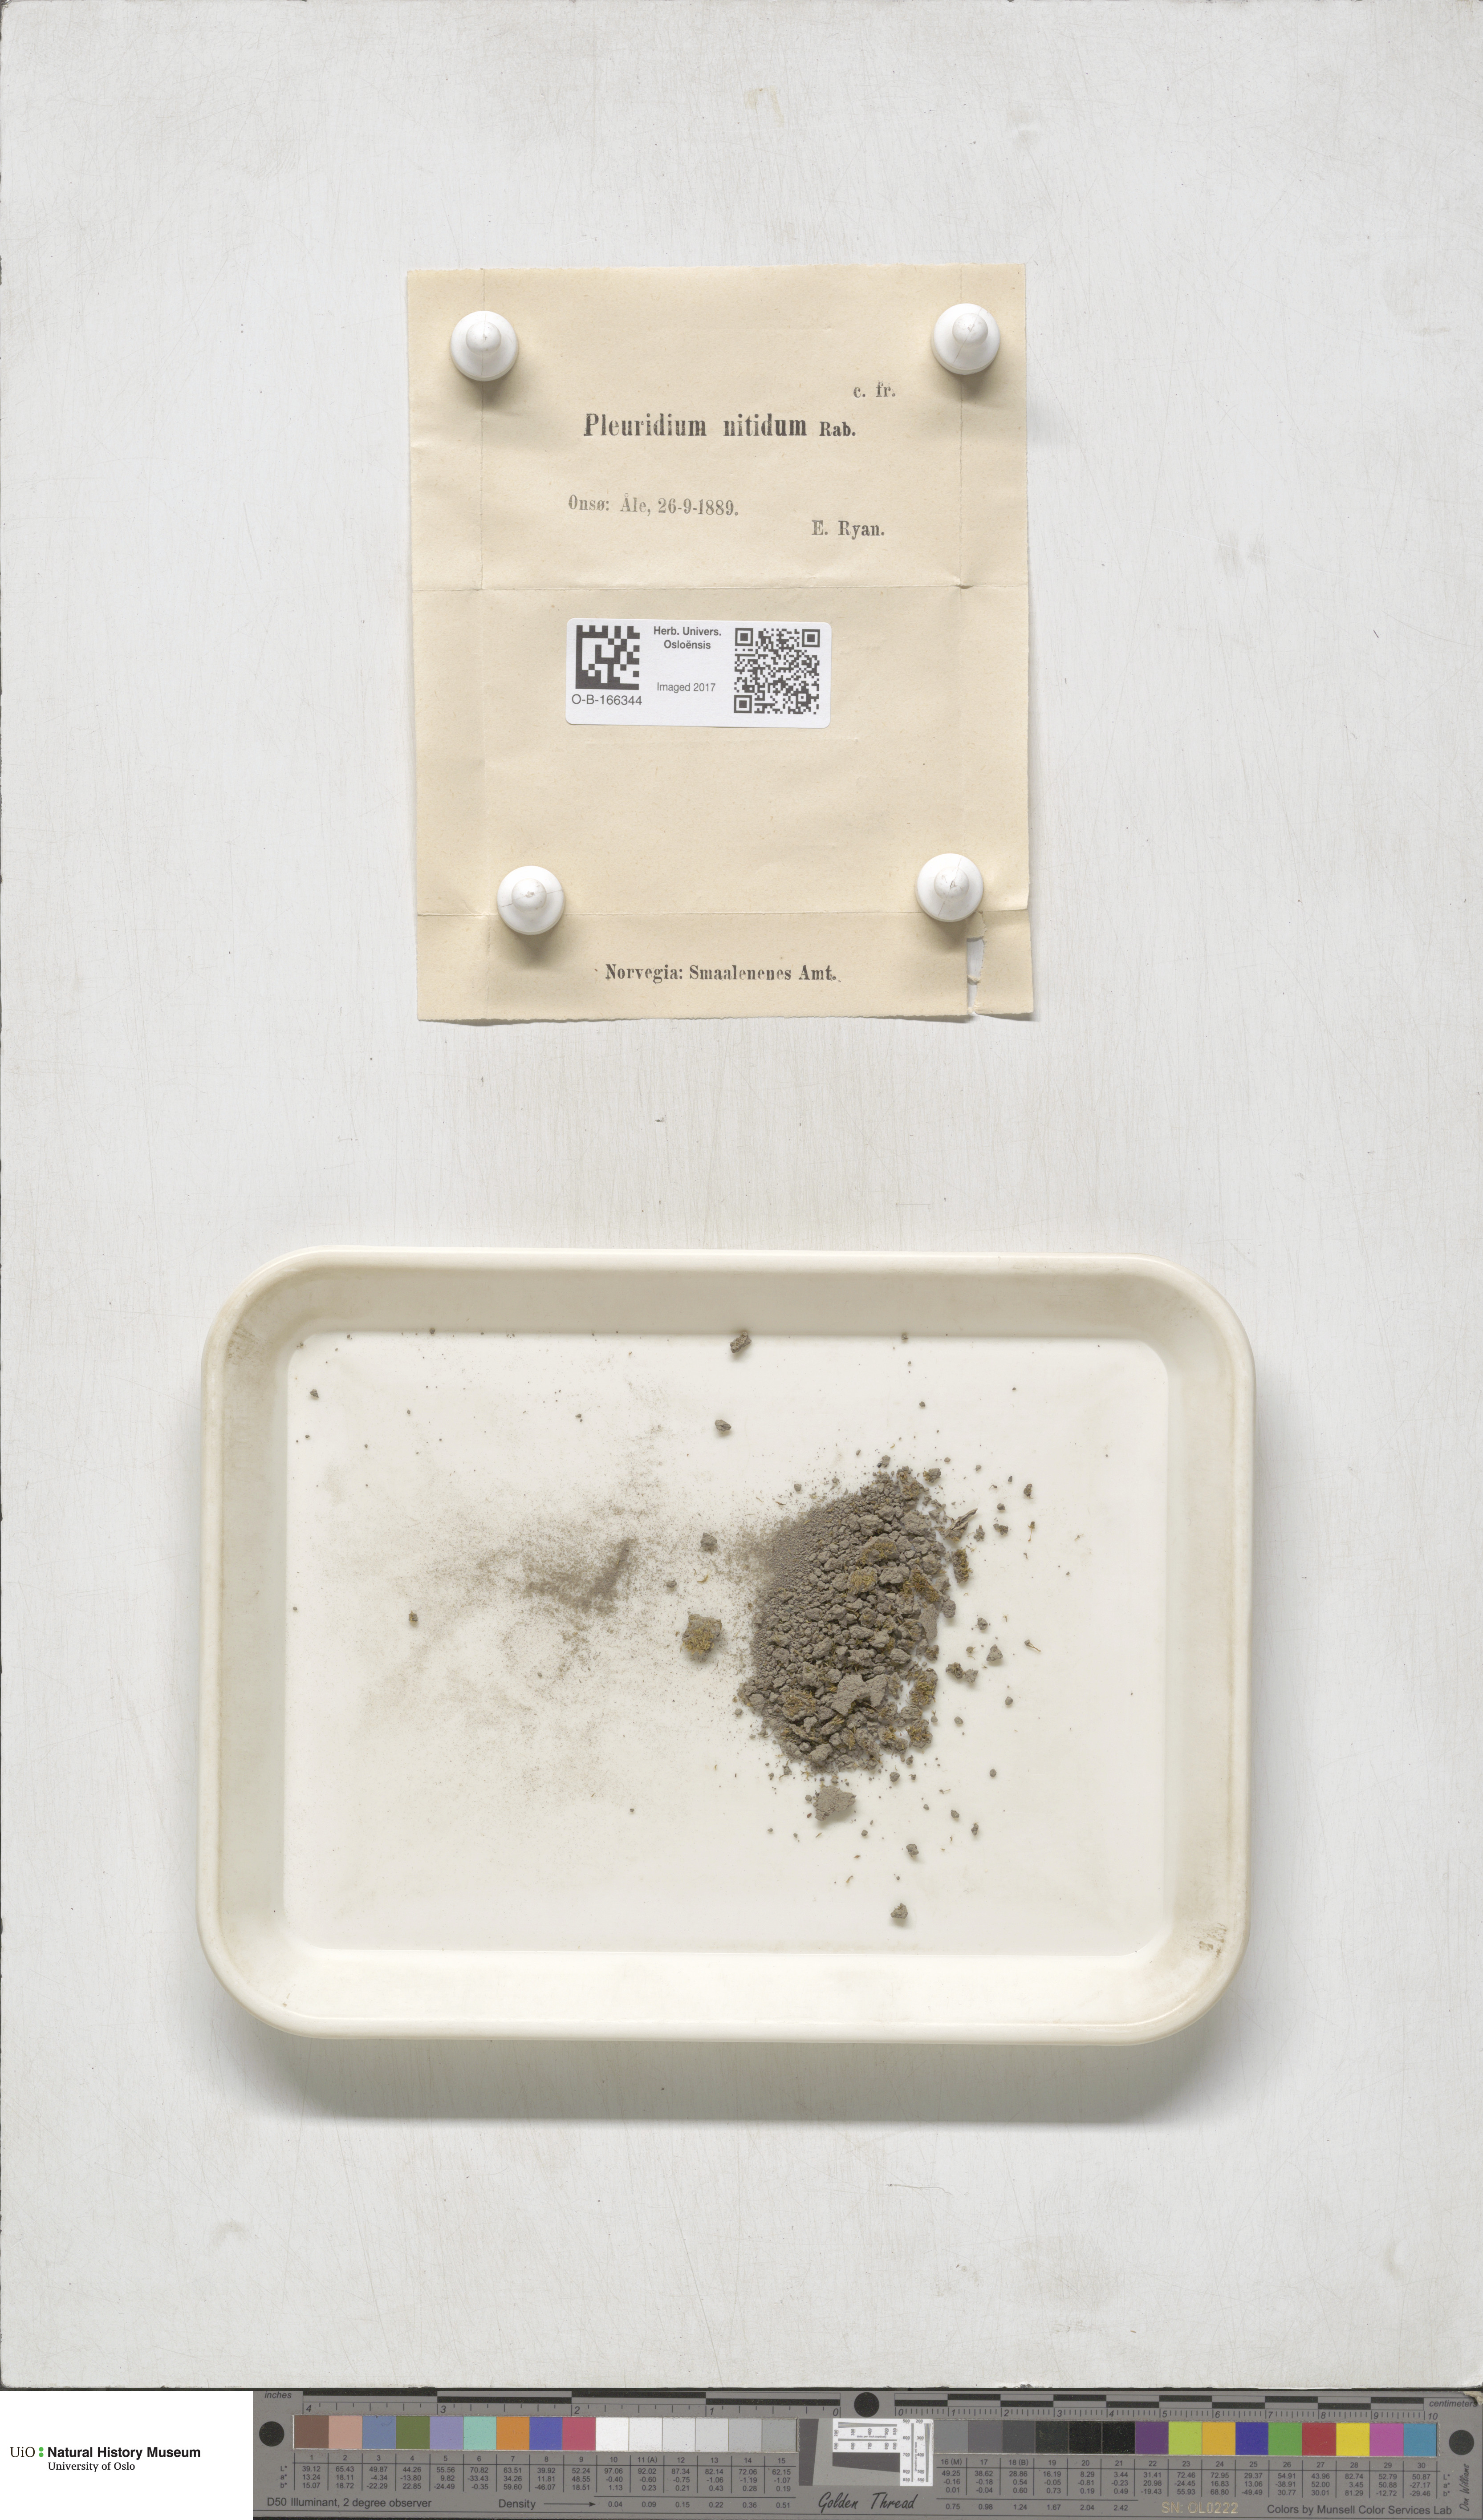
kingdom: Plantae
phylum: Bryophyta
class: Bryopsida
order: Dicranales
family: Ditrichaceae
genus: Pseudephemerum
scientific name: Pseudephemerum nitidum
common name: Delicate earth-moss
